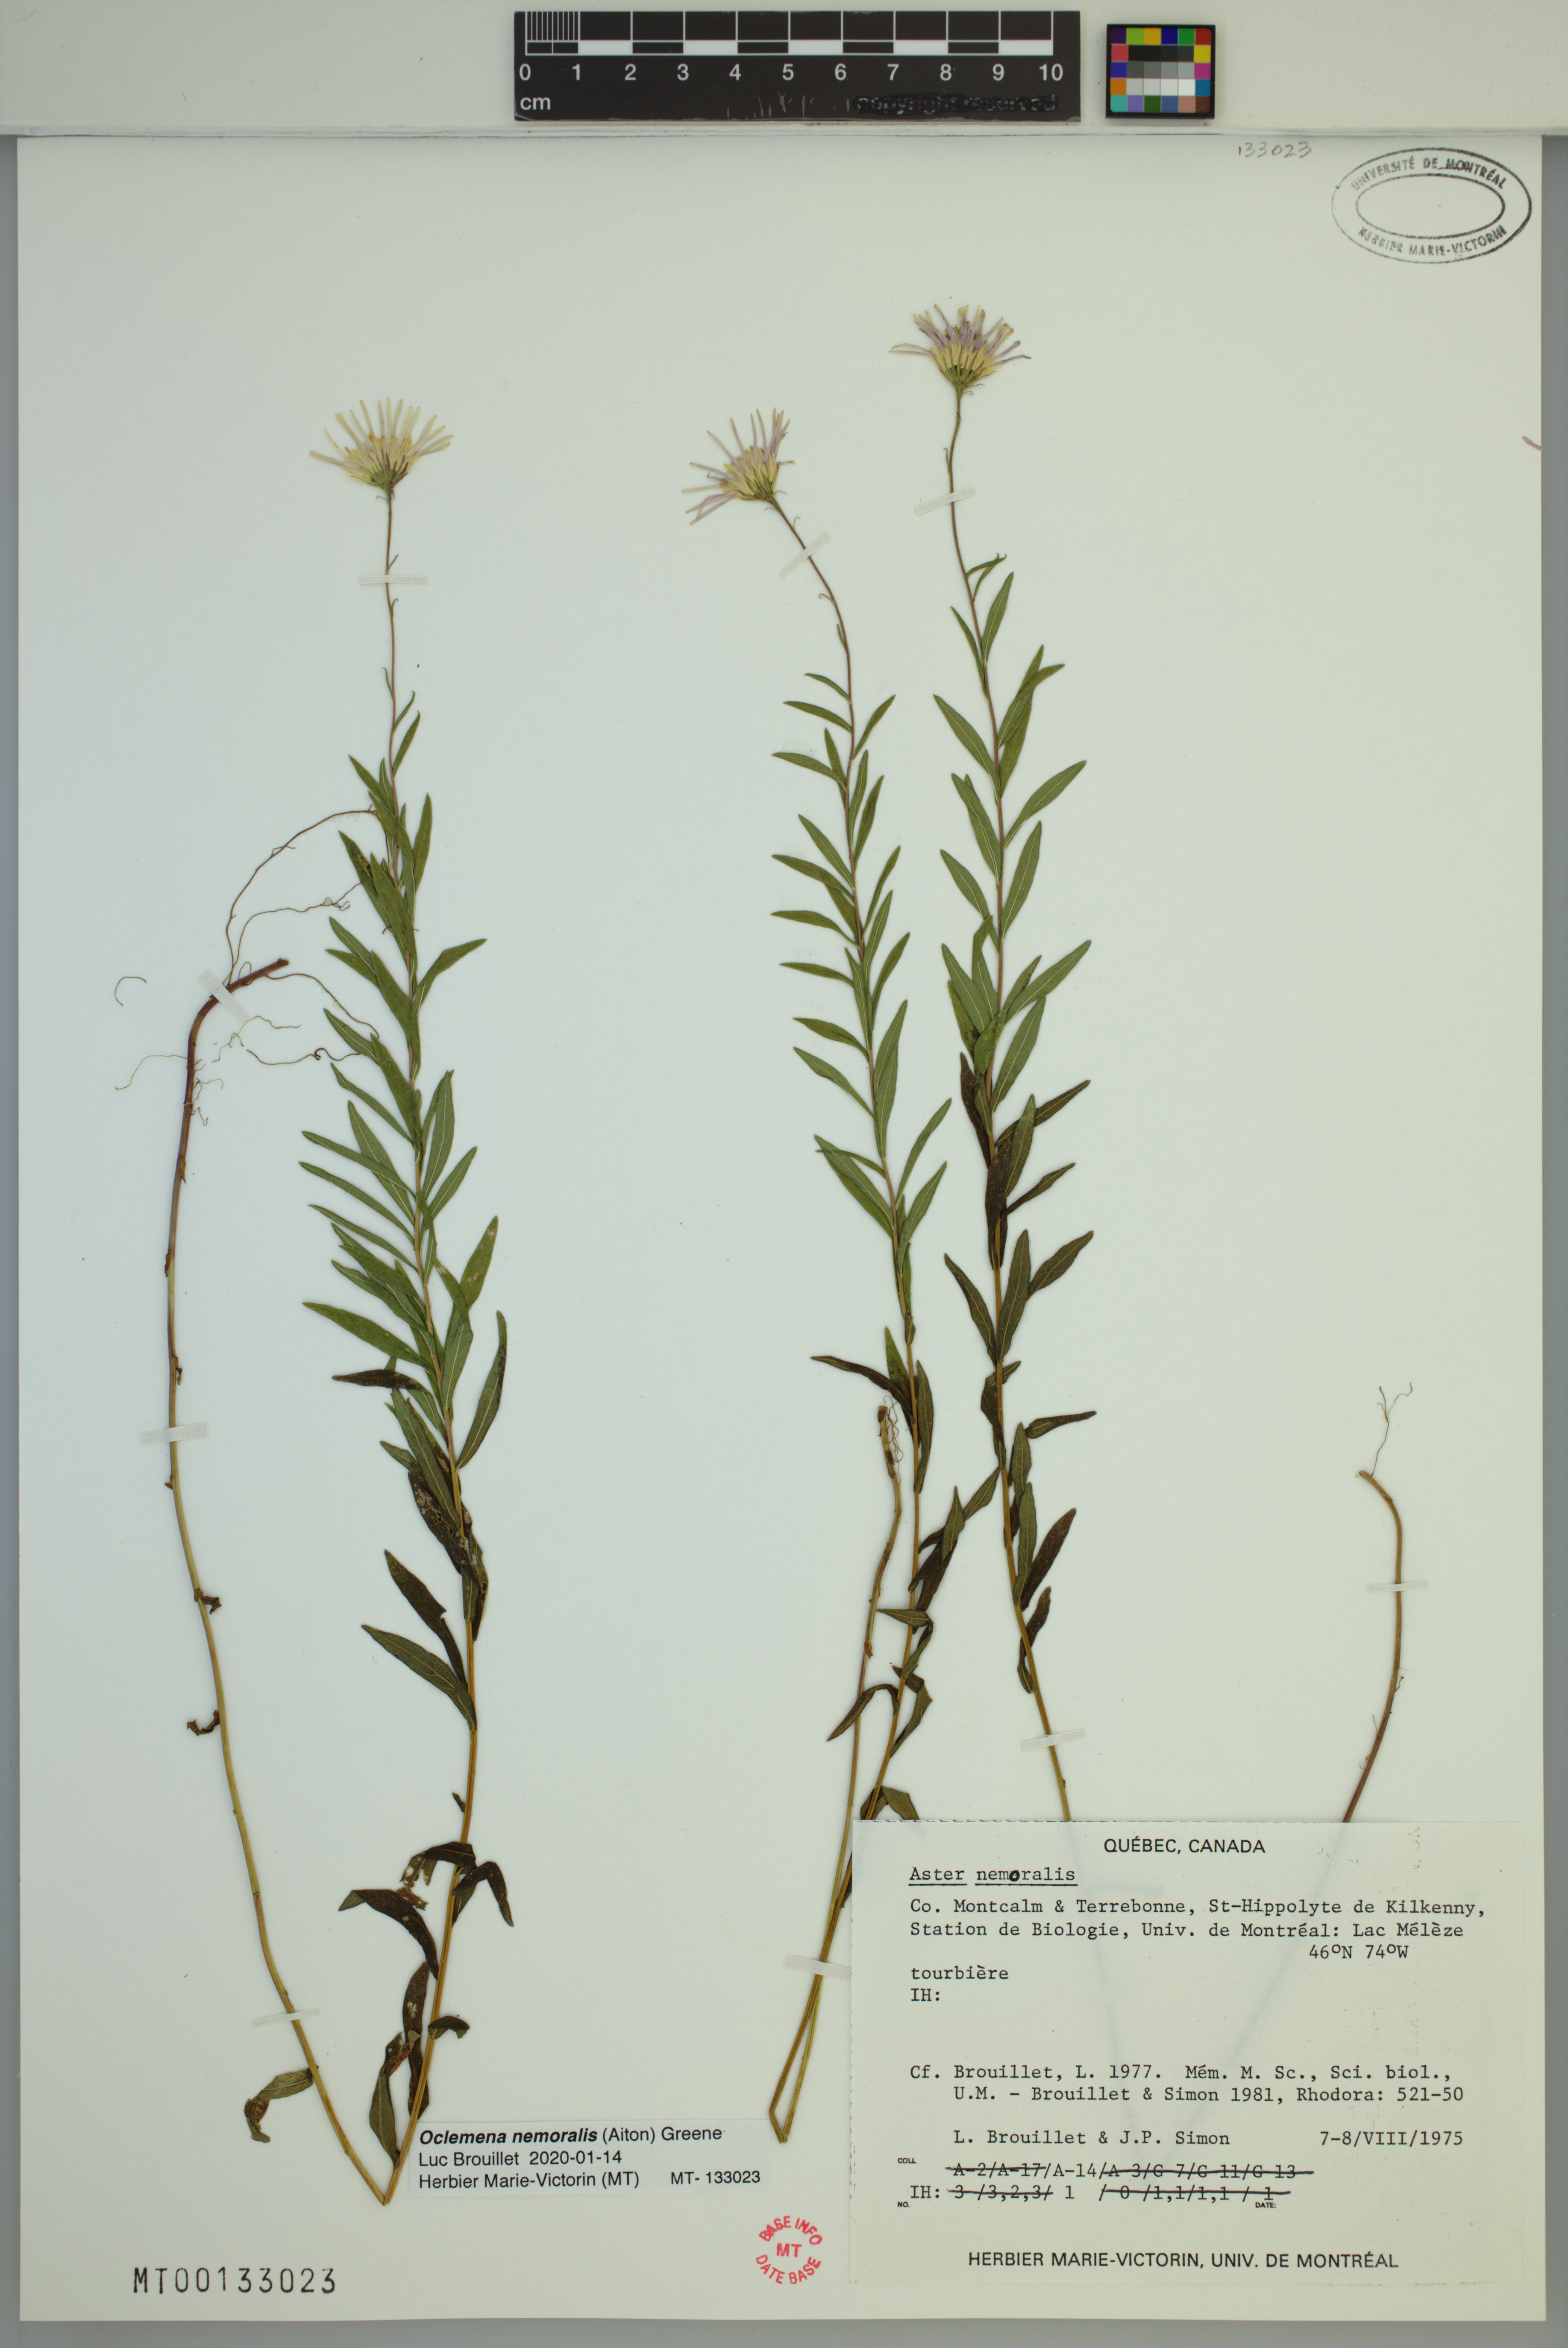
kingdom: Plantae
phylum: Tracheophyta
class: Magnoliopsida
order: Asterales
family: Asteraceae
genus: Oclemena
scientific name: Oclemena nemoralis
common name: Bog aster
